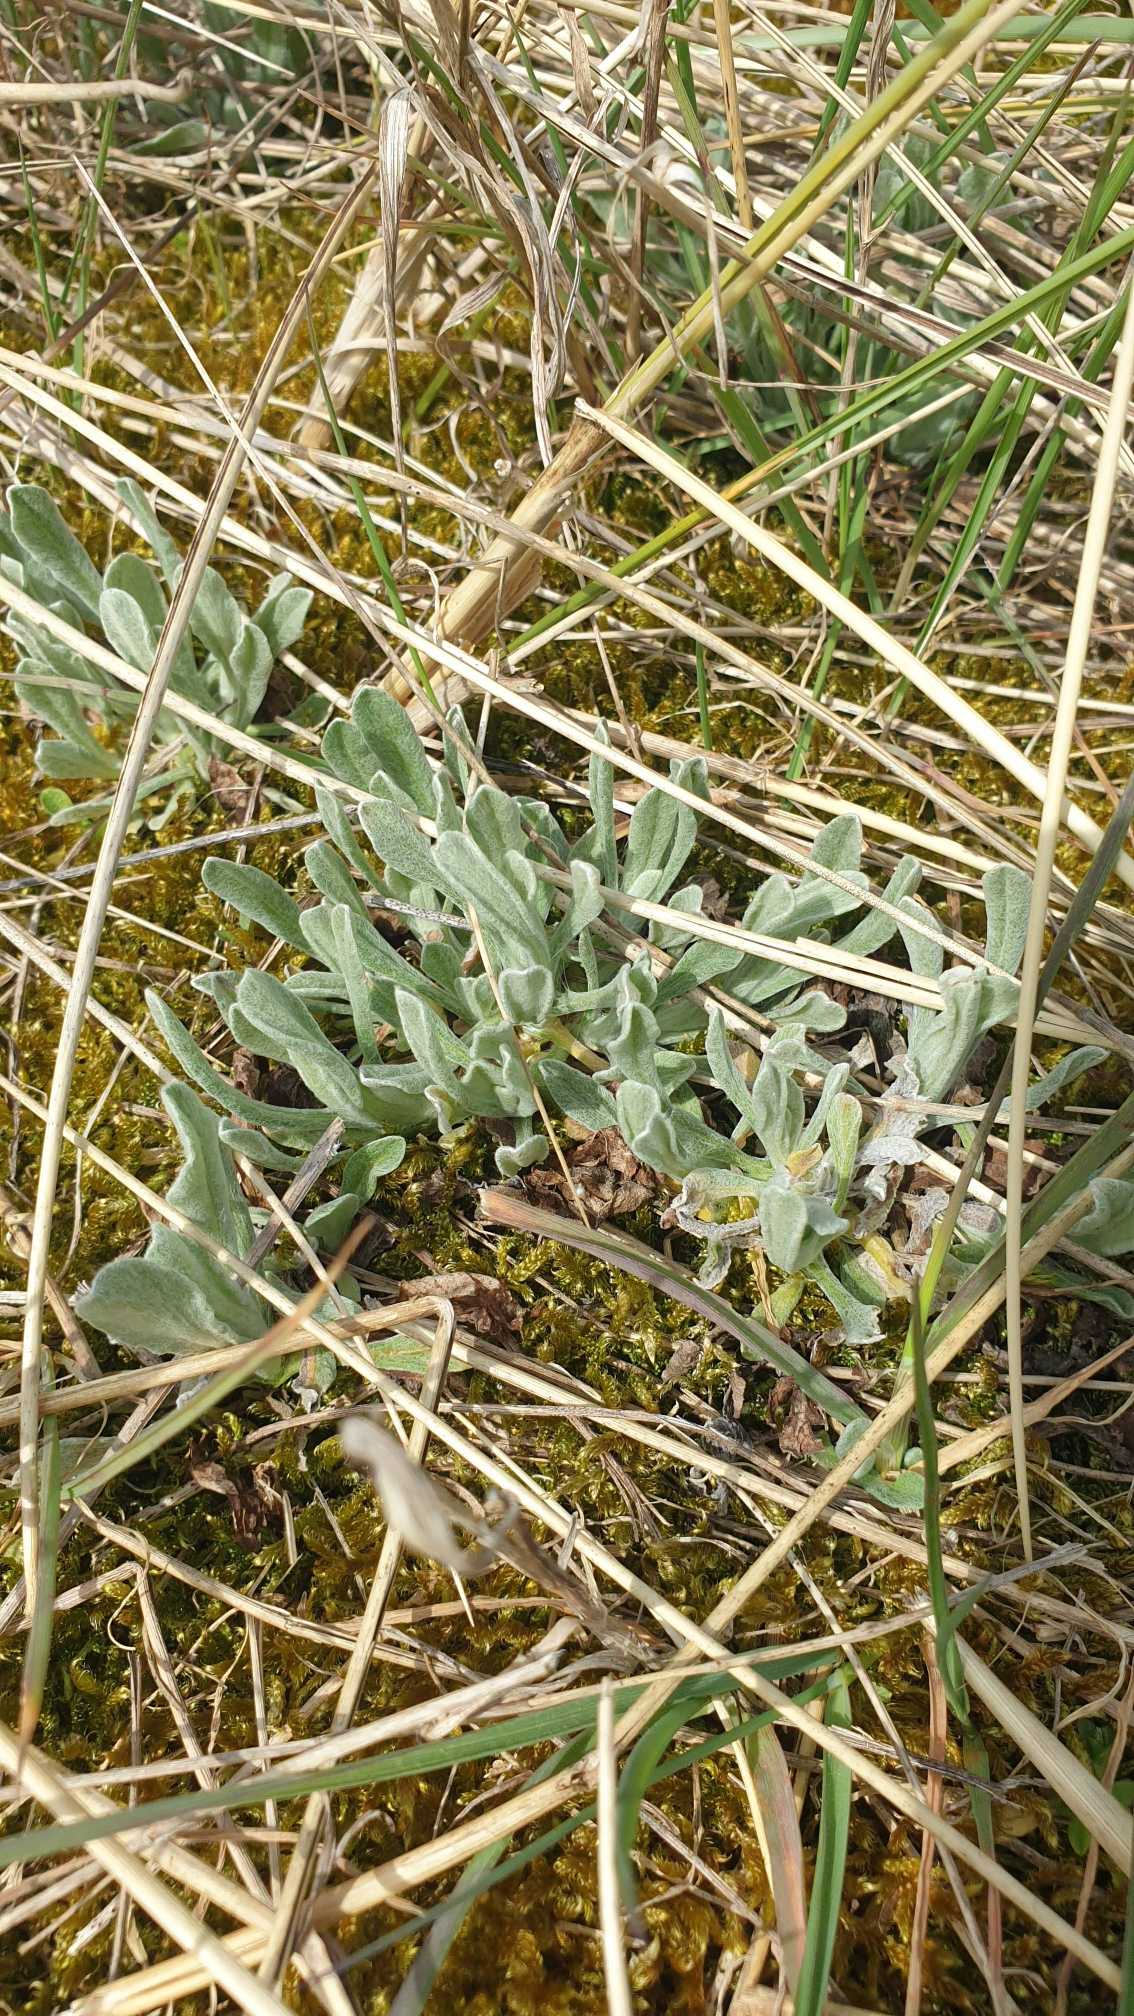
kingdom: Plantae
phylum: Tracheophyta
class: Magnoliopsida
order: Asterales
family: Asteraceae
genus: Helichrysum
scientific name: Helichrysum arenarium
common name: Gul evighedsblomst
